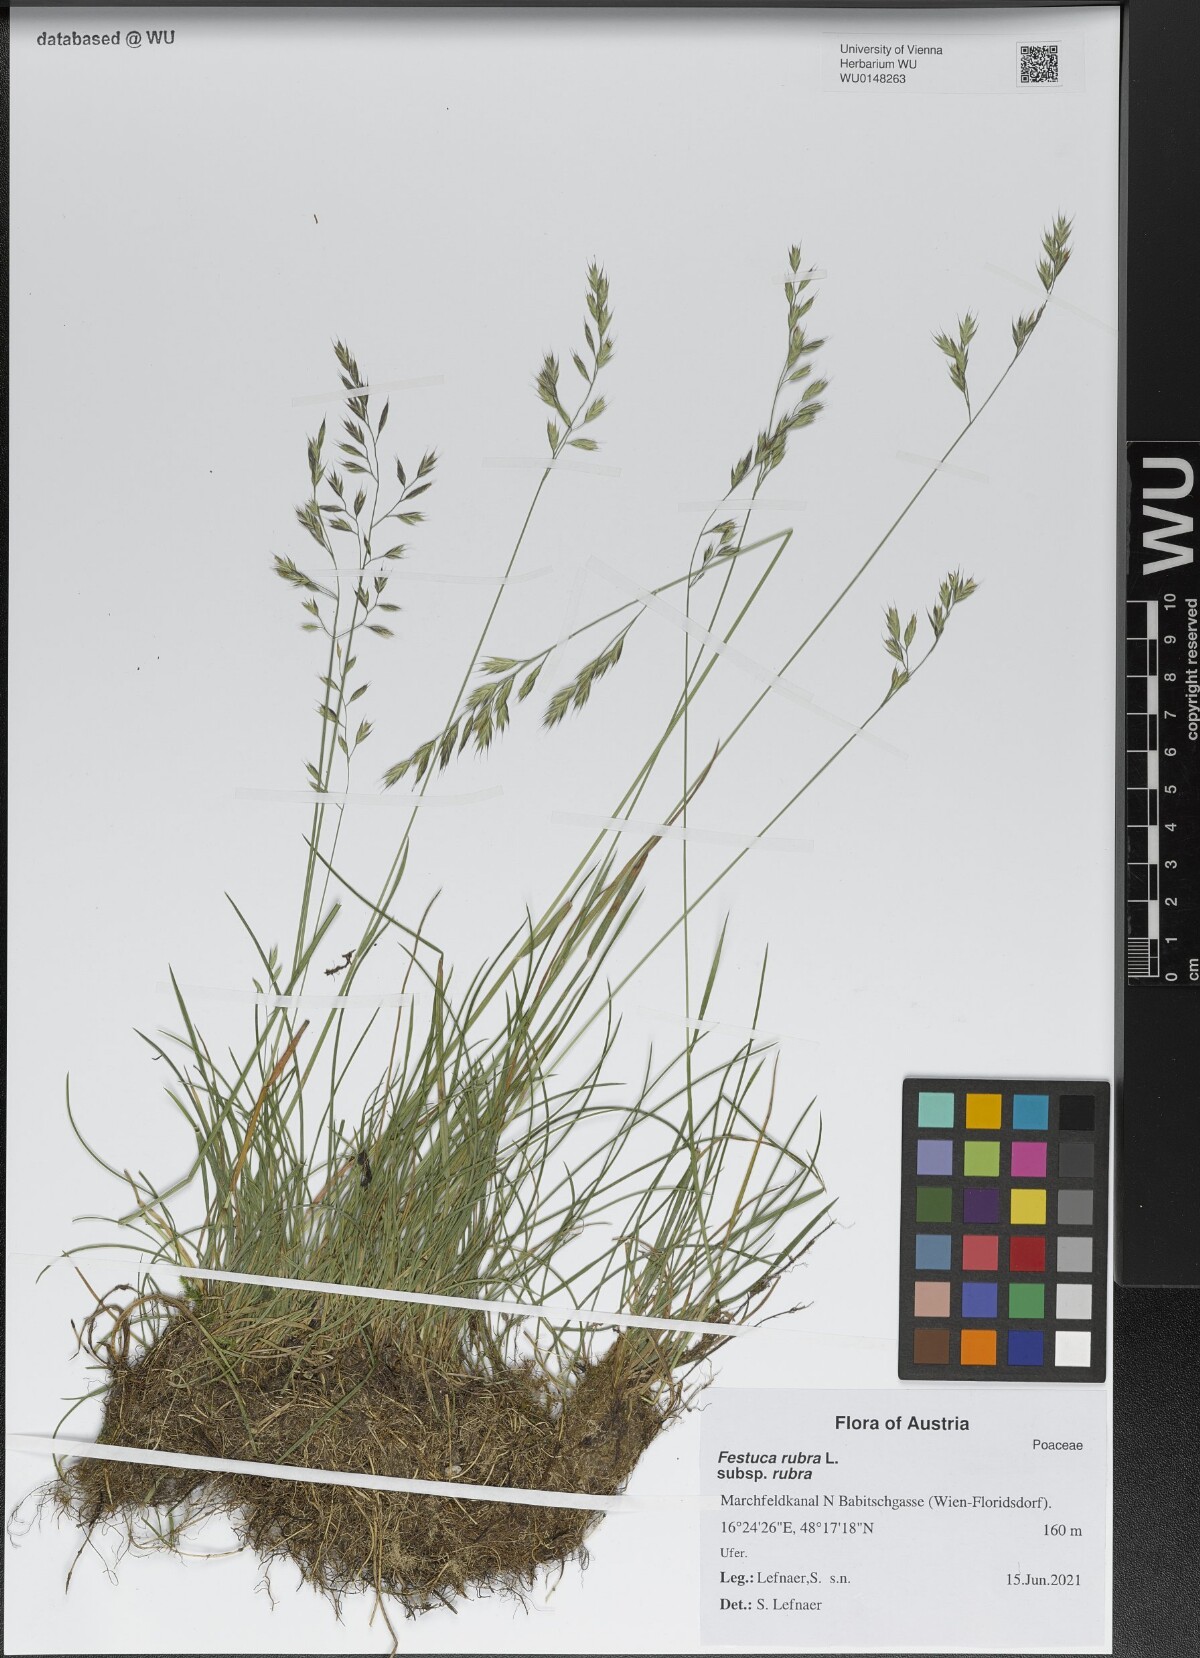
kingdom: Plantae
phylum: Tracheophyta
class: Liliopsida
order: Poales
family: Poaceae
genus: Festuca
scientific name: Festuca rubra
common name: Red fescue
